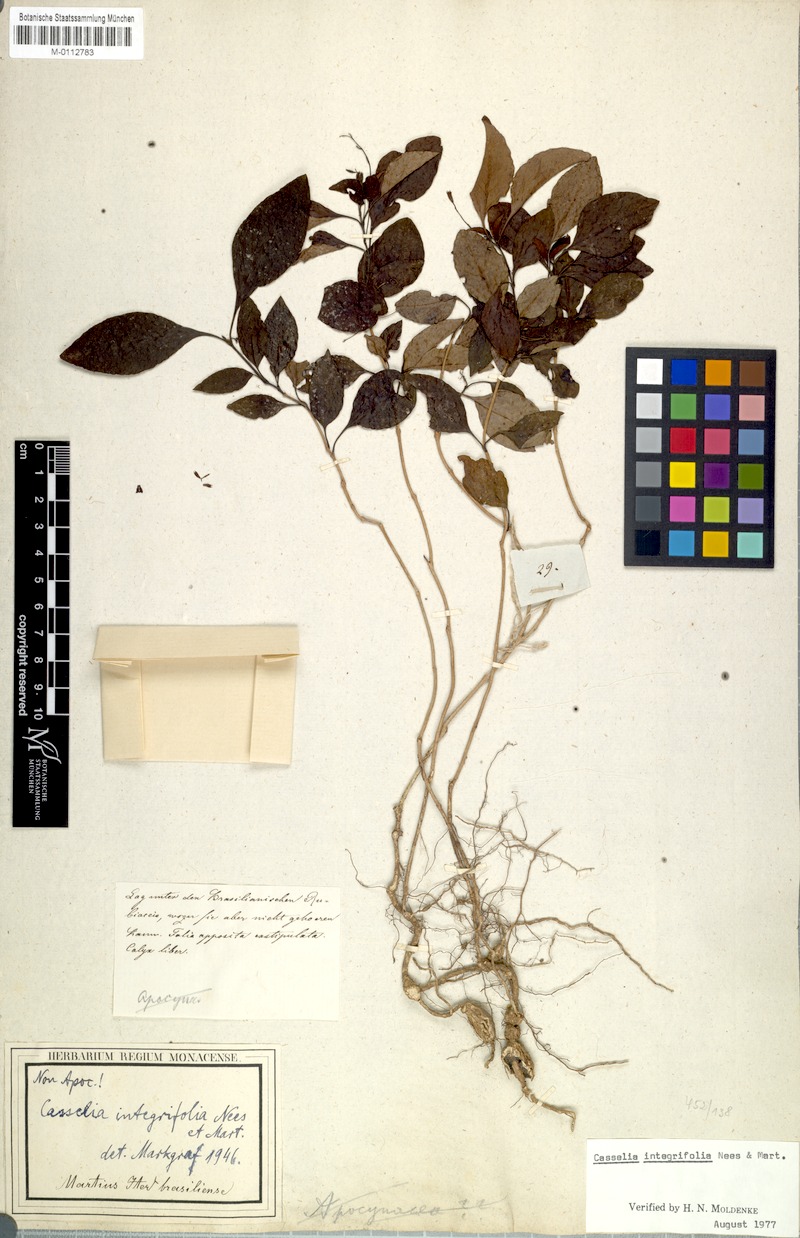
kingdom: Plantae
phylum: Tracheophyta
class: Magnoliopsida
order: Lamiales
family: Verbenaceae
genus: Casselia
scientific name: Casselia integrifolia
